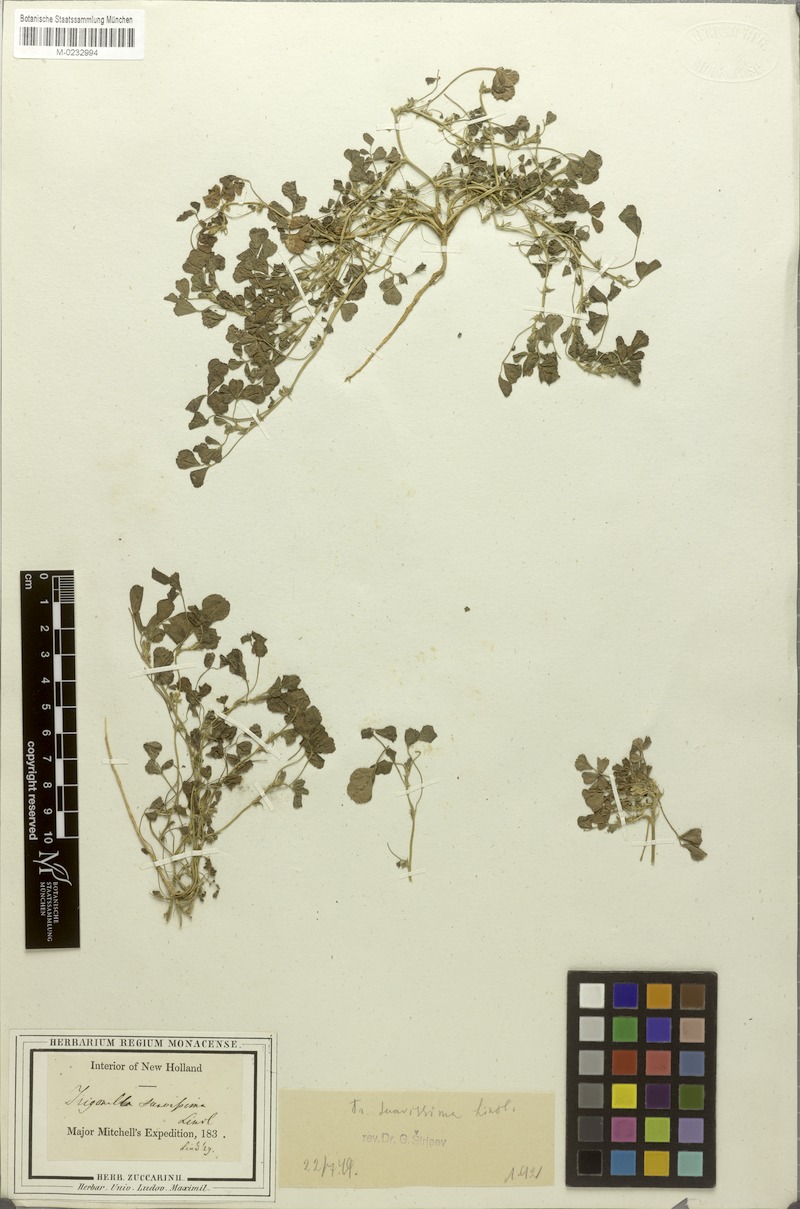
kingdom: Plantae
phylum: Tracheophyta
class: Magnoliopsida
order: Fabales
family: Fabaceae
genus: Trigonella
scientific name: Trigonella suavissima
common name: Cooper-clover
